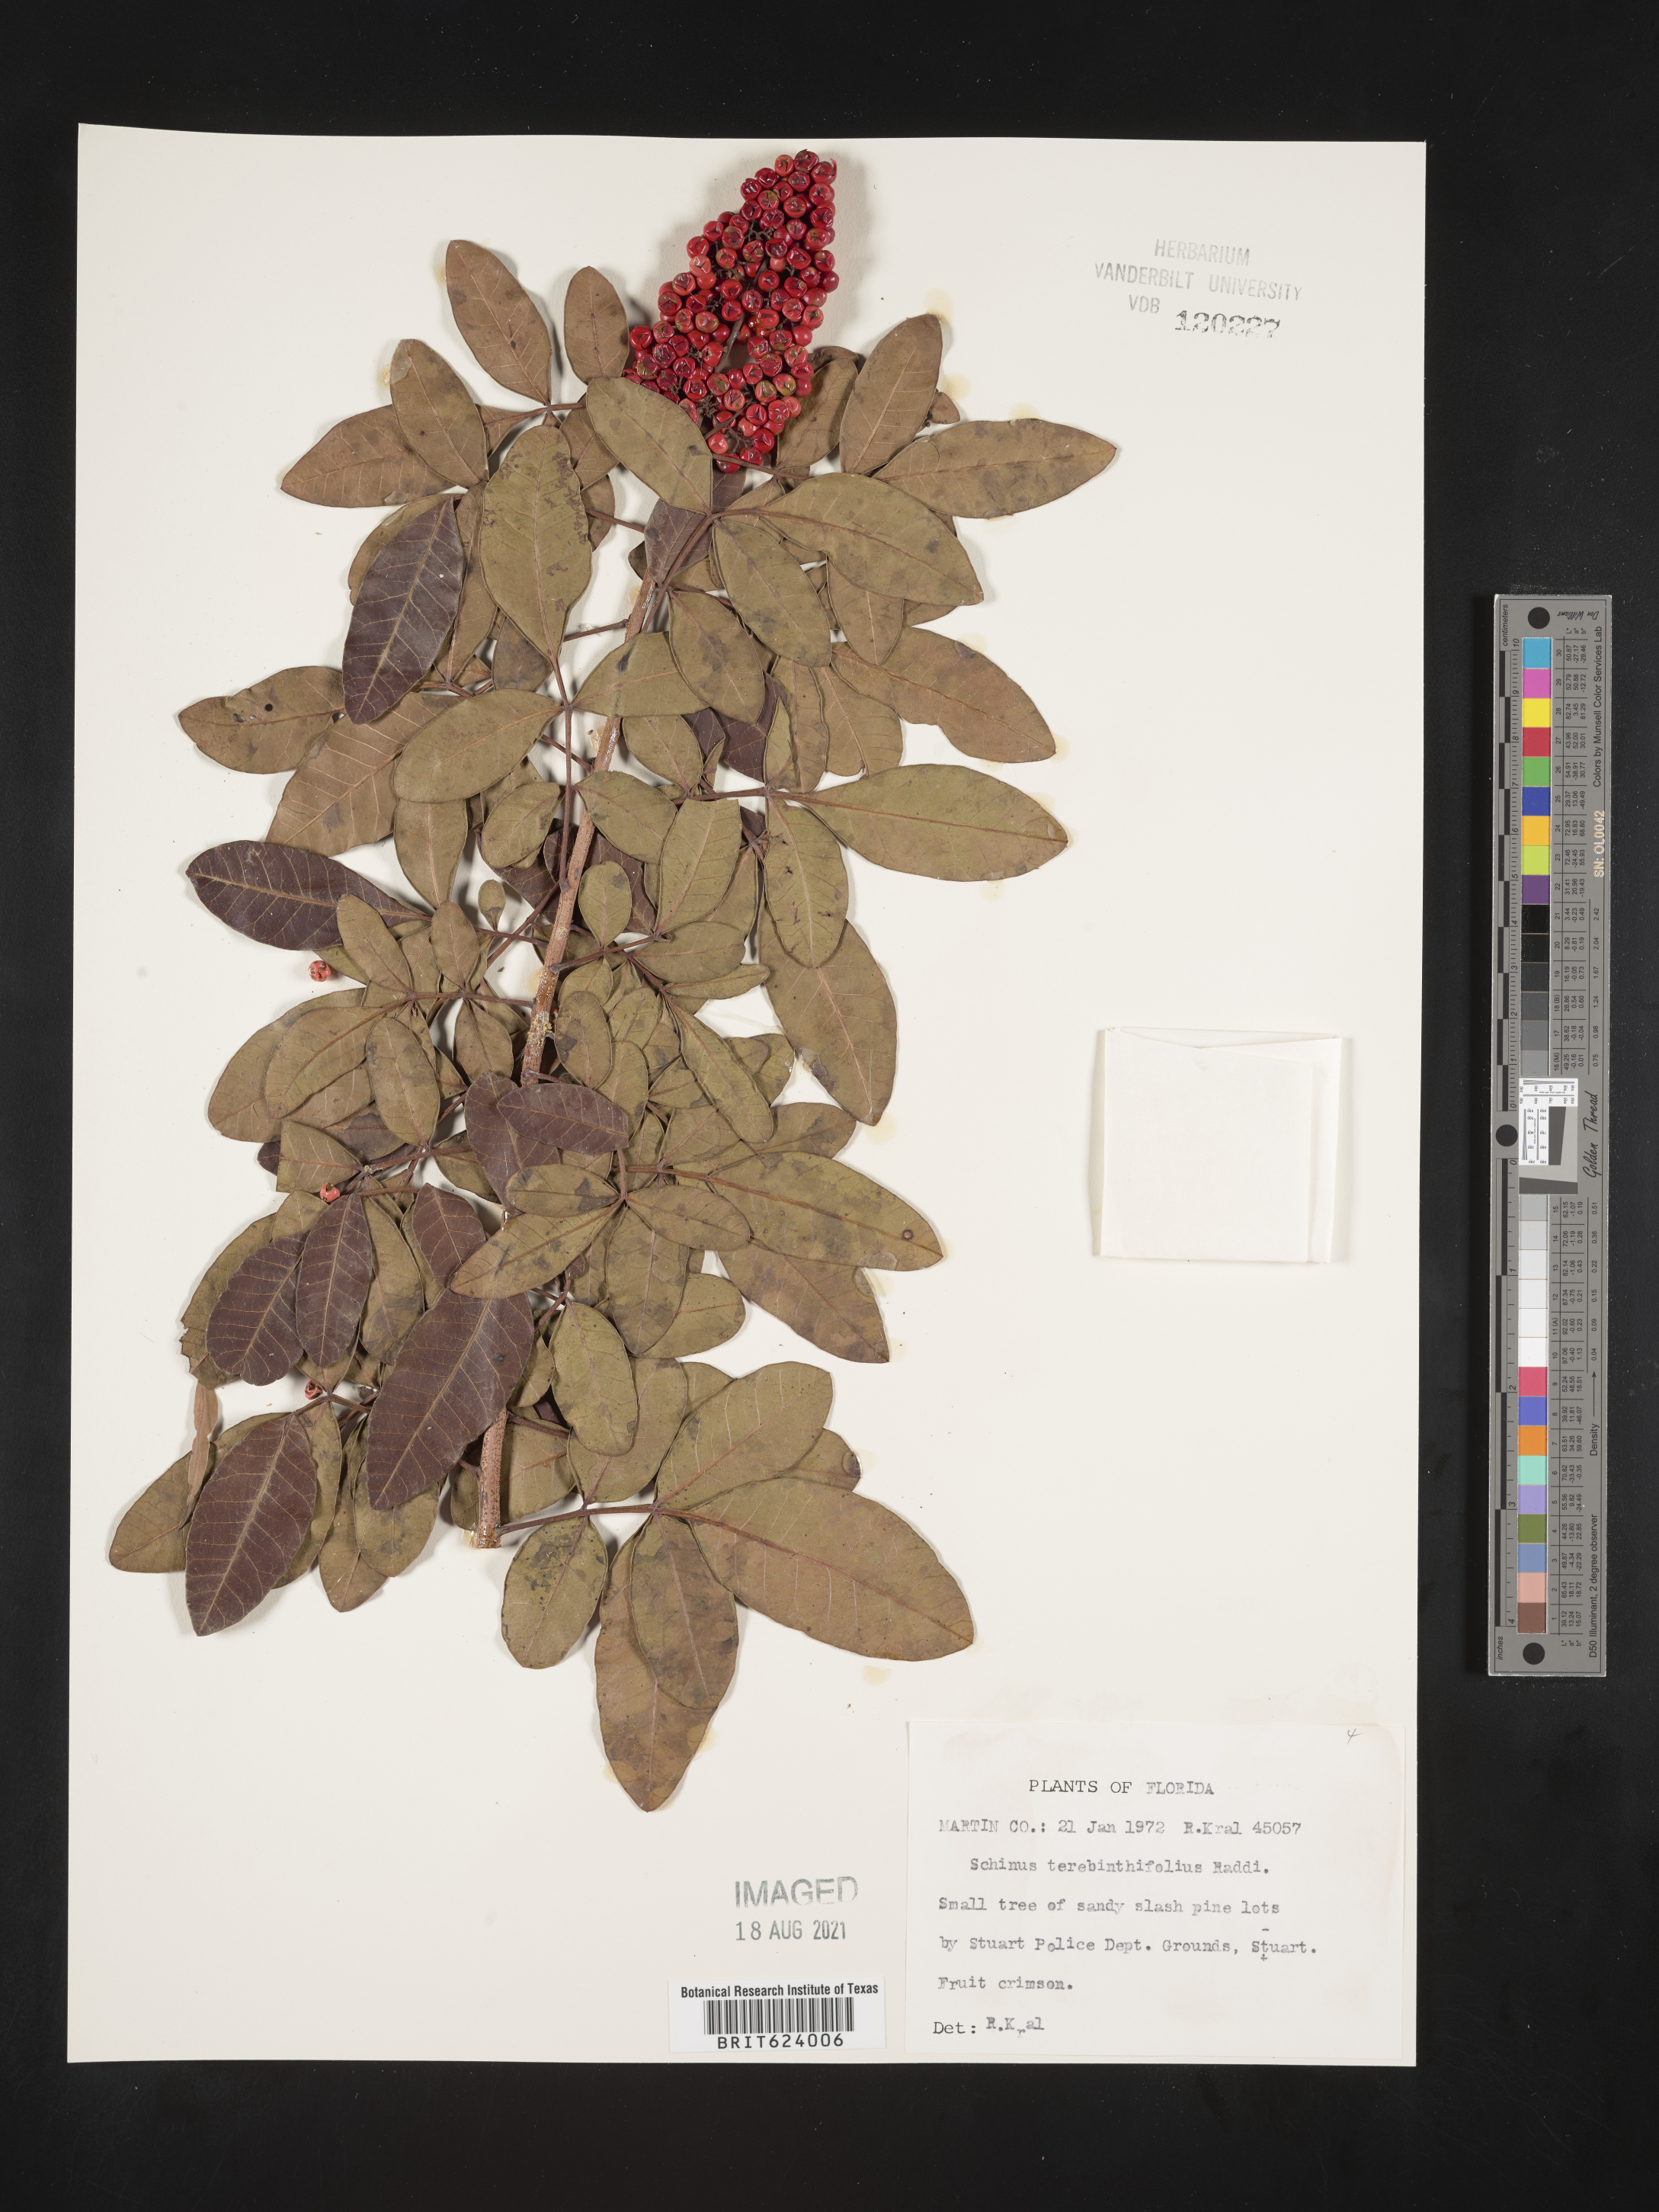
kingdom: Plantae
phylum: Tracheophyta
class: Magnoliopsida
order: Sapindales
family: Anacardiaceae
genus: Schinus
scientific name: Schinus terebinthifolia
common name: Brazilian peppertree
